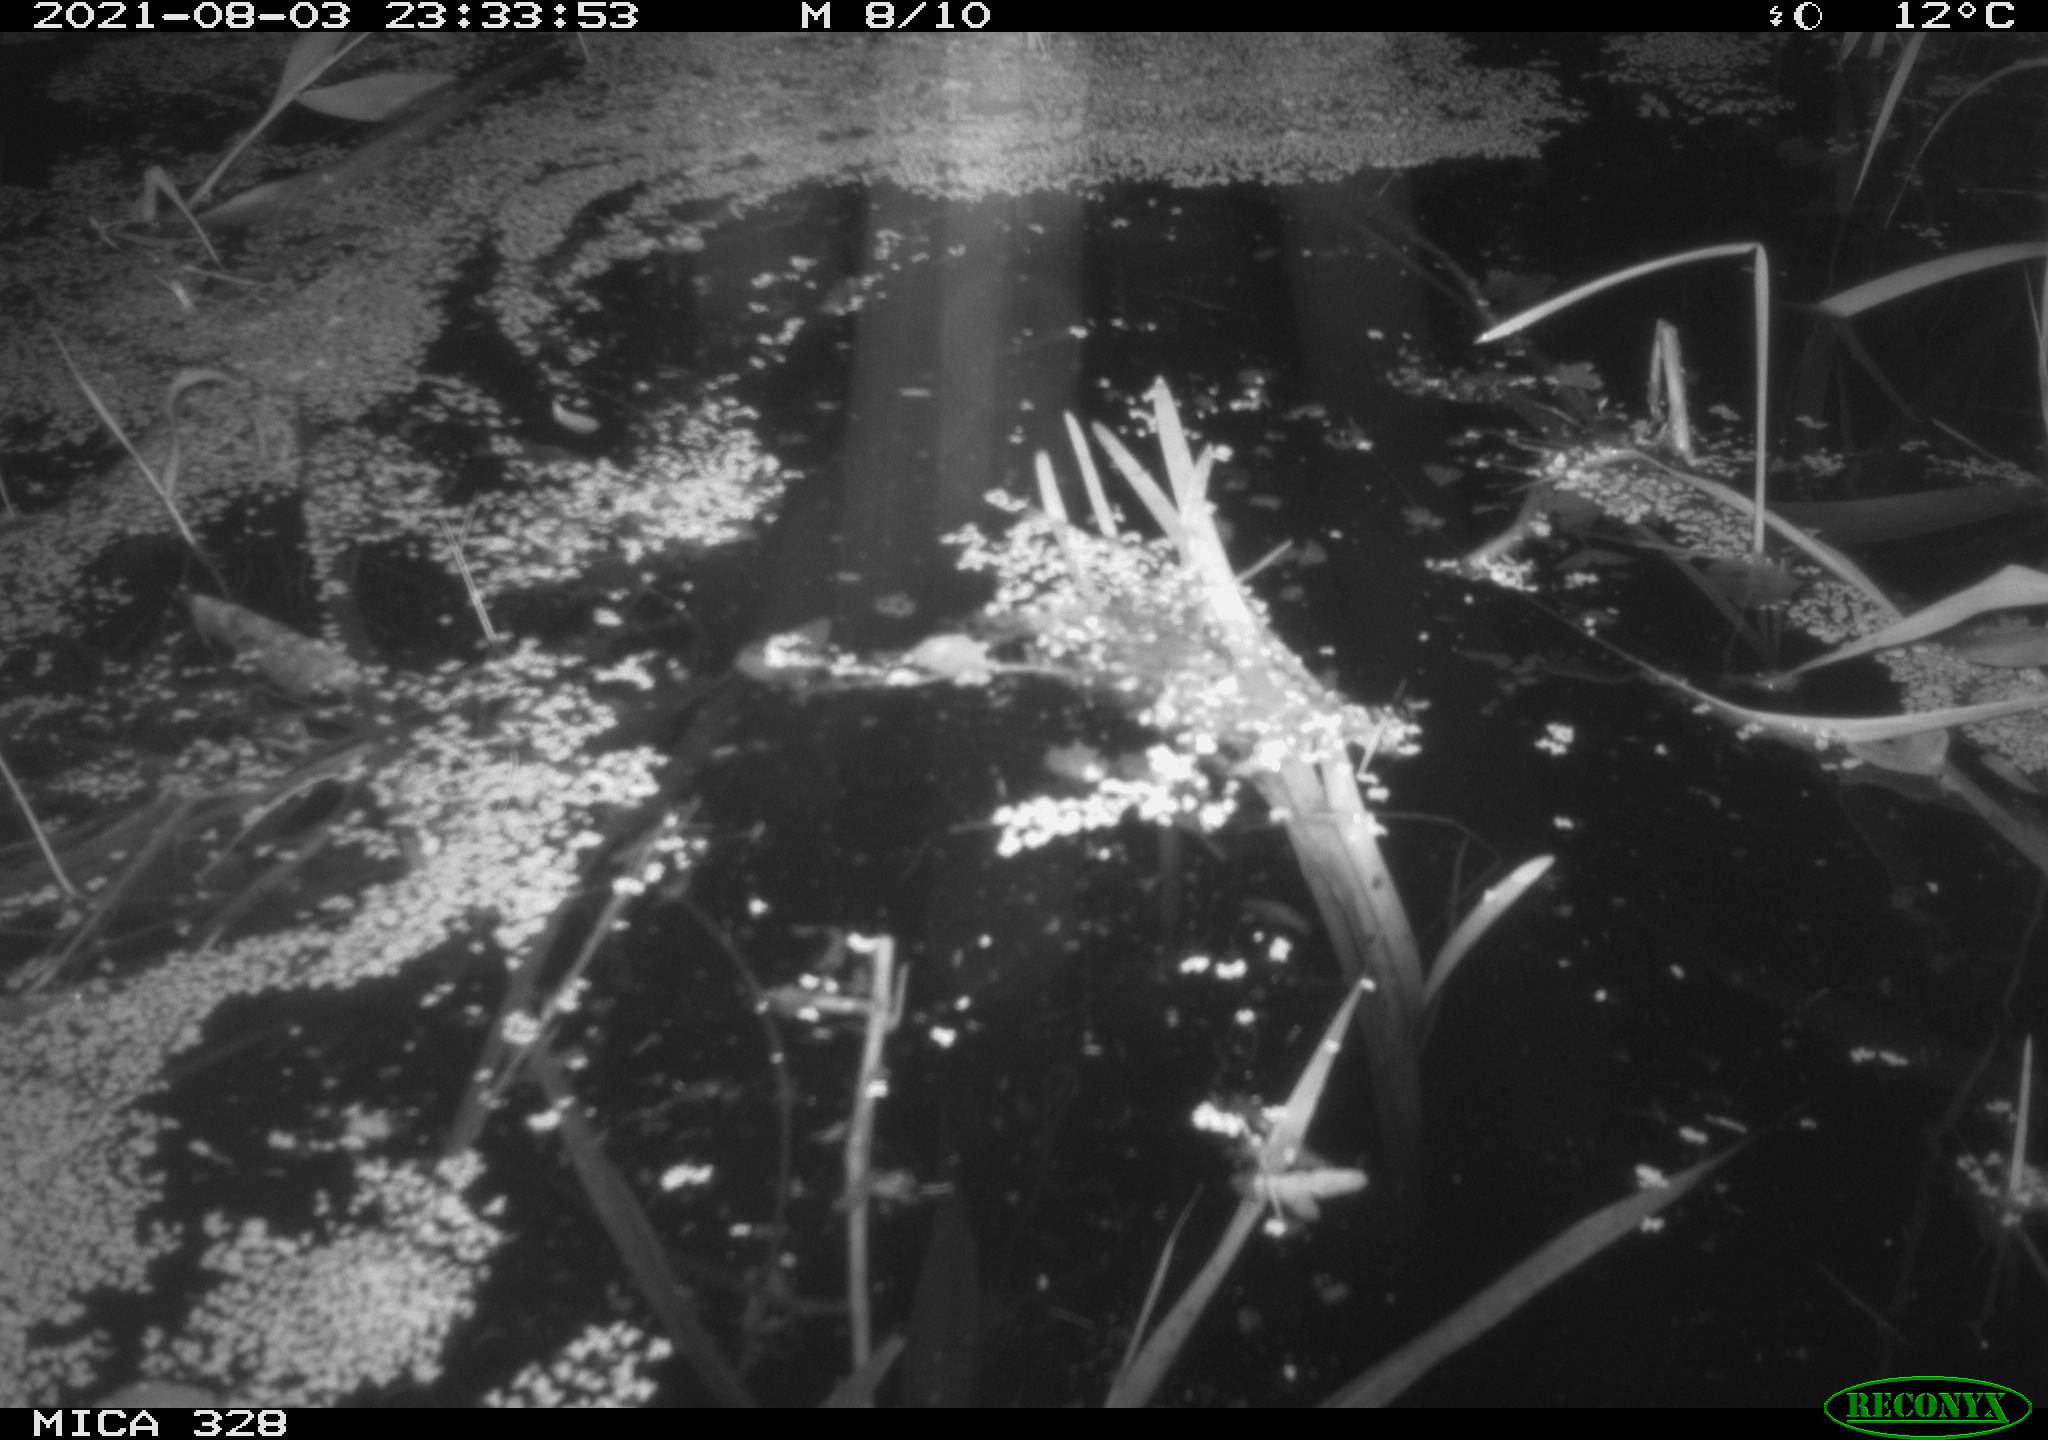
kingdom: Animalia
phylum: Chordata
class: Mammalia
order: Rodentia
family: Cricetidae
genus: Ondatra
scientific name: Ondatra zibethicus
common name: Muskrat
